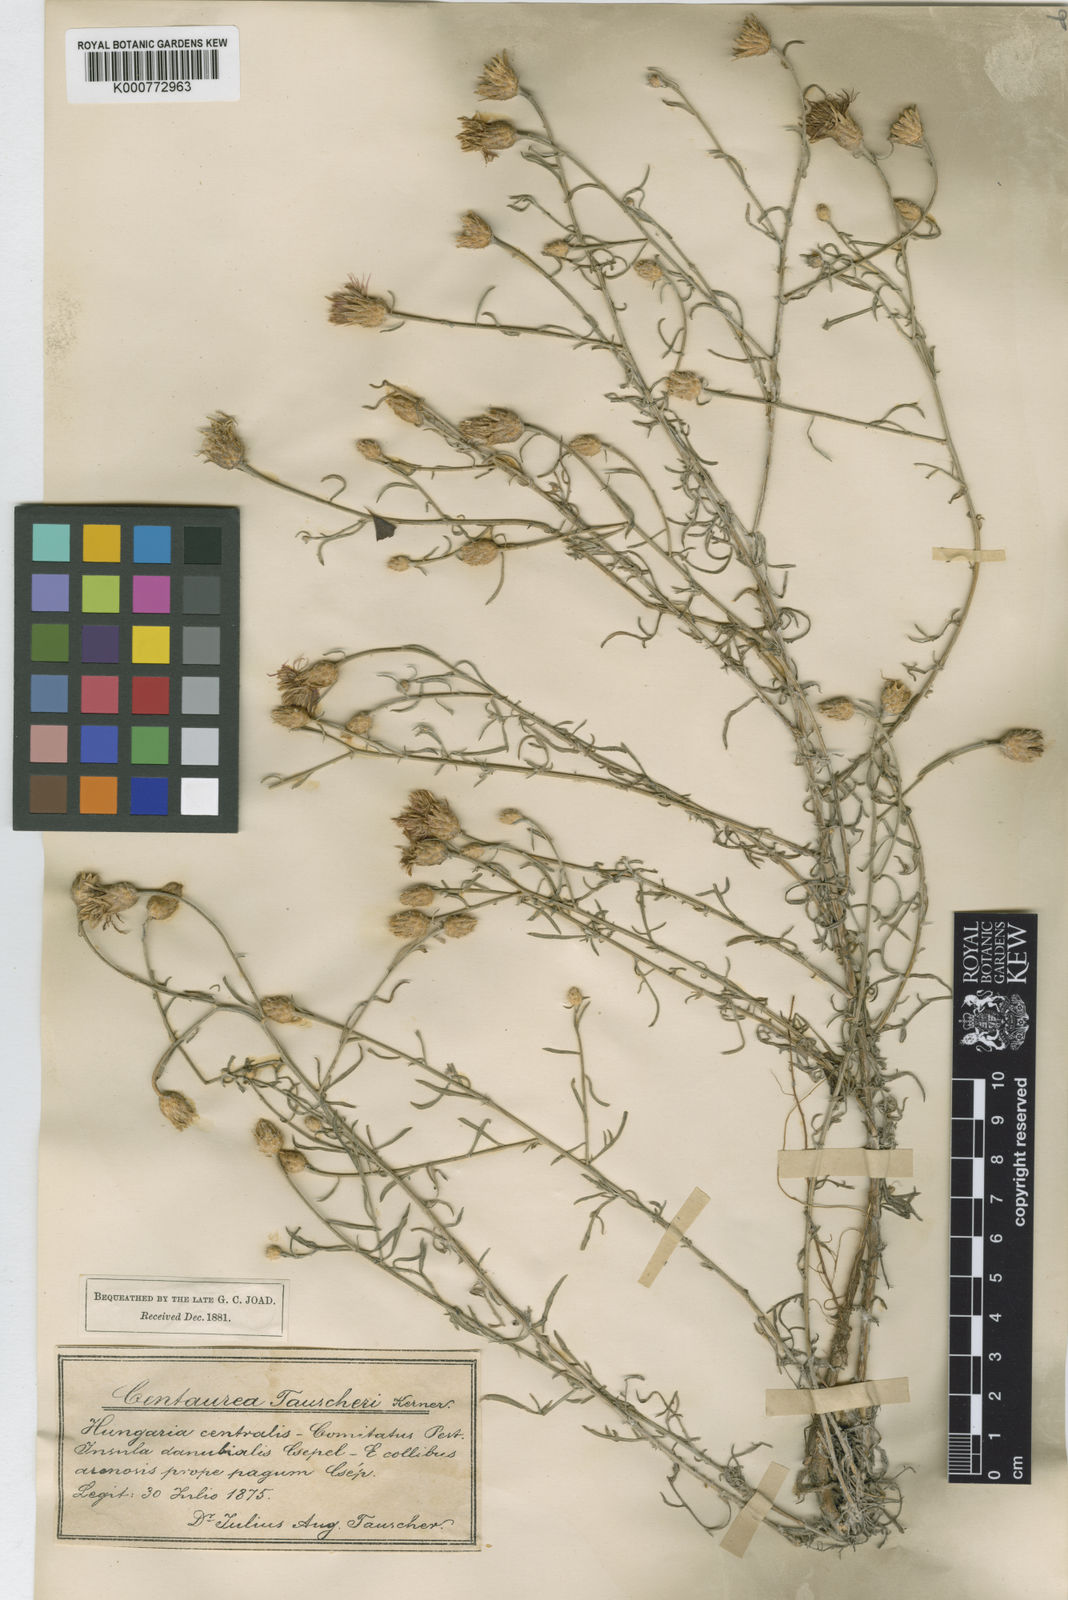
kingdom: Plantae
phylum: Tracheophyta
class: Magnoliopsida
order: Asterales
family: Asteraceae
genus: Centaurea
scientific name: Centaurea tauscheri
